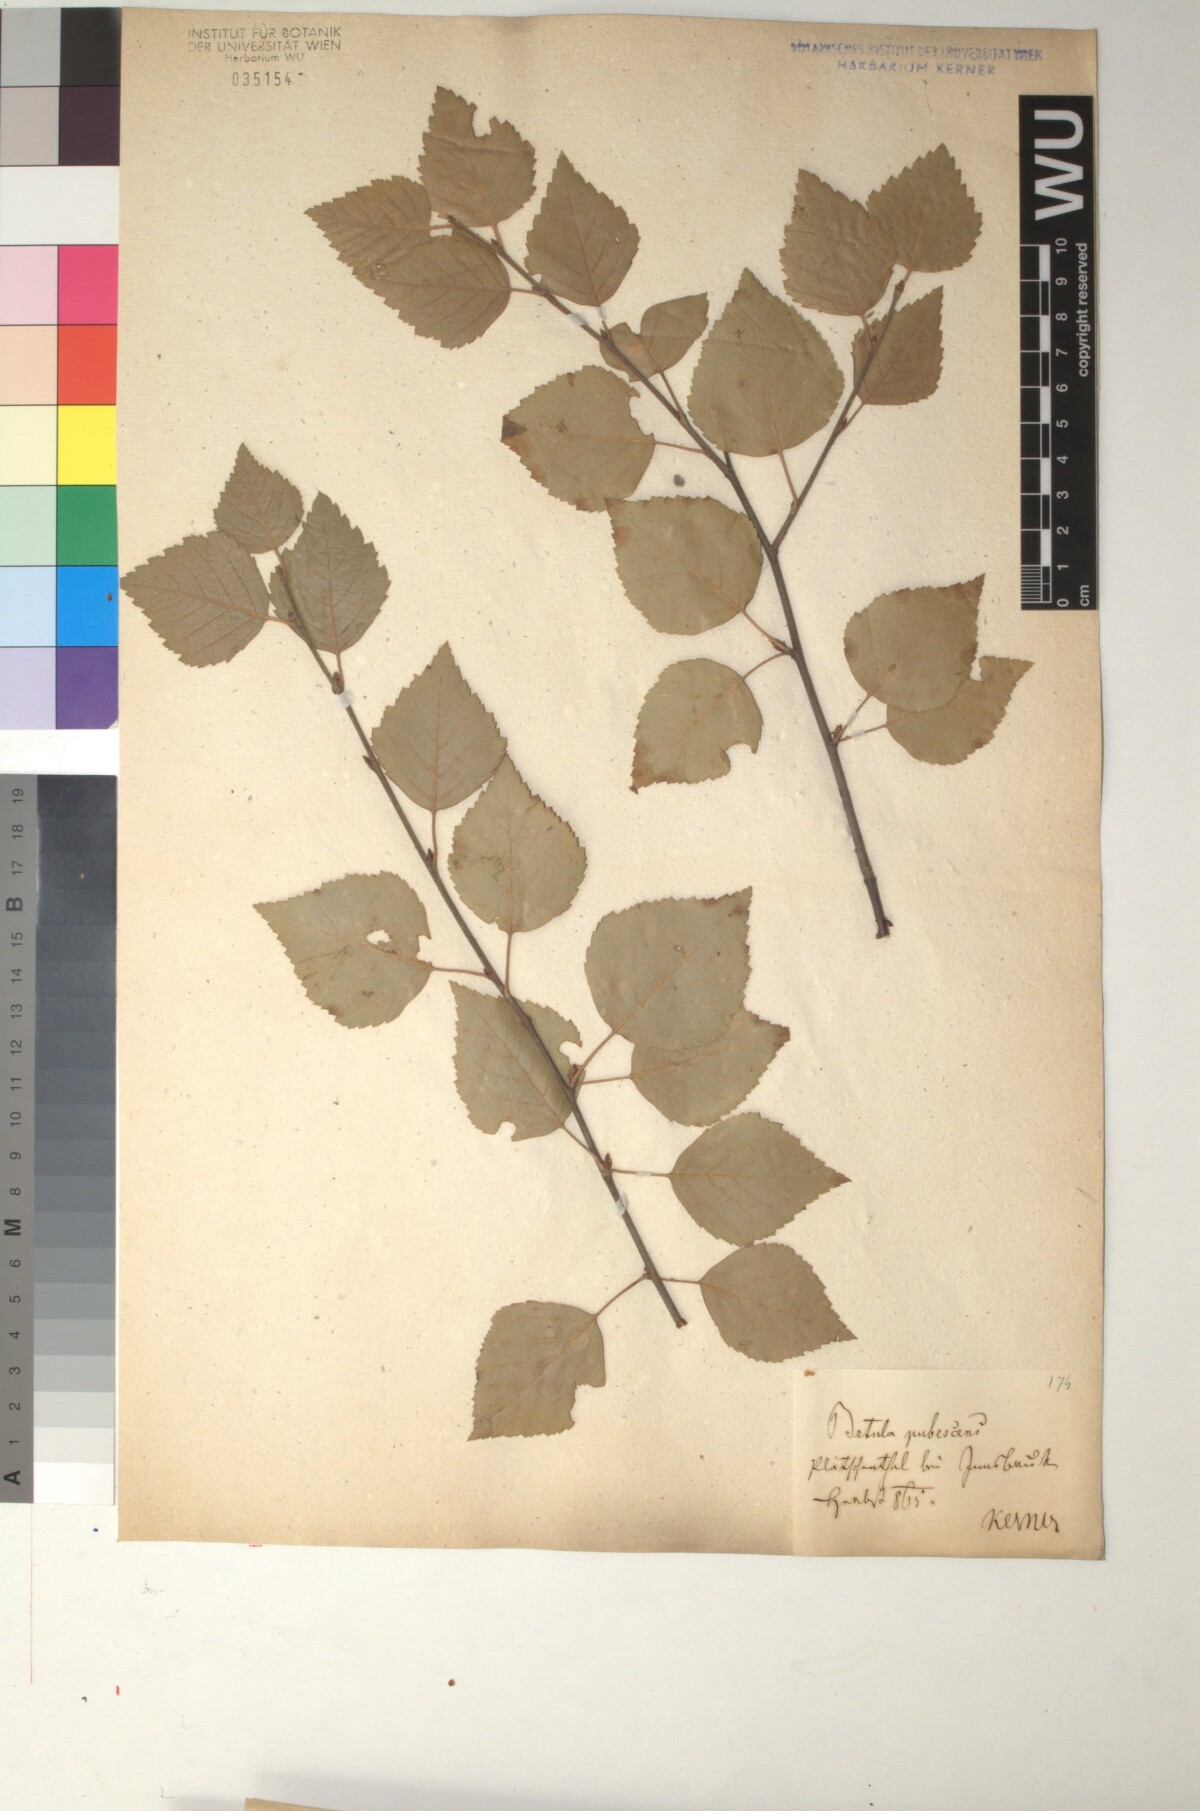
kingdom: Plantae
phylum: Tracheophyta
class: Magnoliopsida
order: Fagales
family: Betulaceae
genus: Betula
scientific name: Betula pubescens
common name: Downy birch
